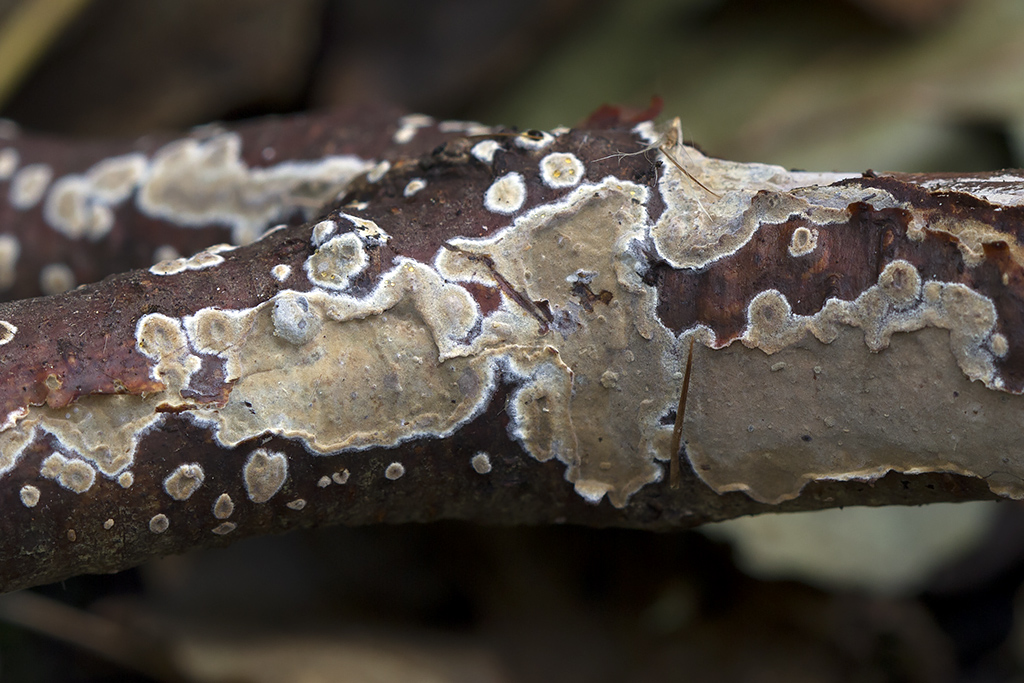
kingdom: Fungi
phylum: Basidiomycota
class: Agaricomycetes
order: Polyporales
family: Meruliaceae
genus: Mycoacia
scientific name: Mycoacia livida
